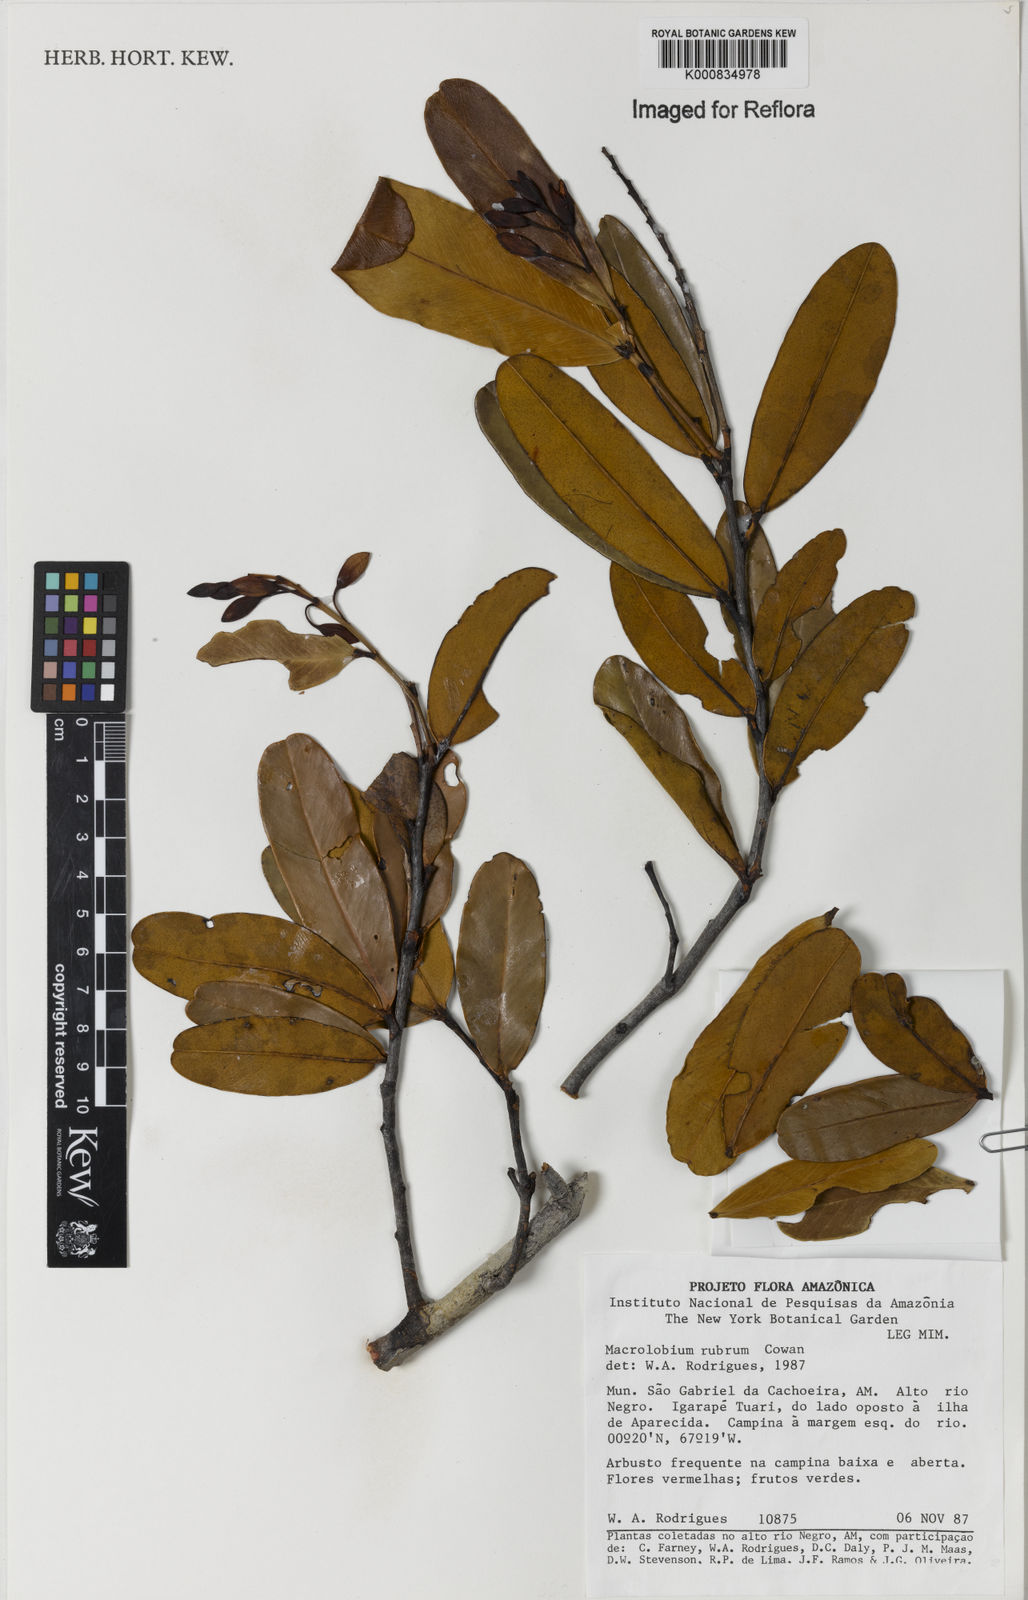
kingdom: Plantae
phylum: Tracheophyta
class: Magnoliopsida
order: Fabales
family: Fabaceae
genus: Macrolobium
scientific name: Macrolobium rubrum
